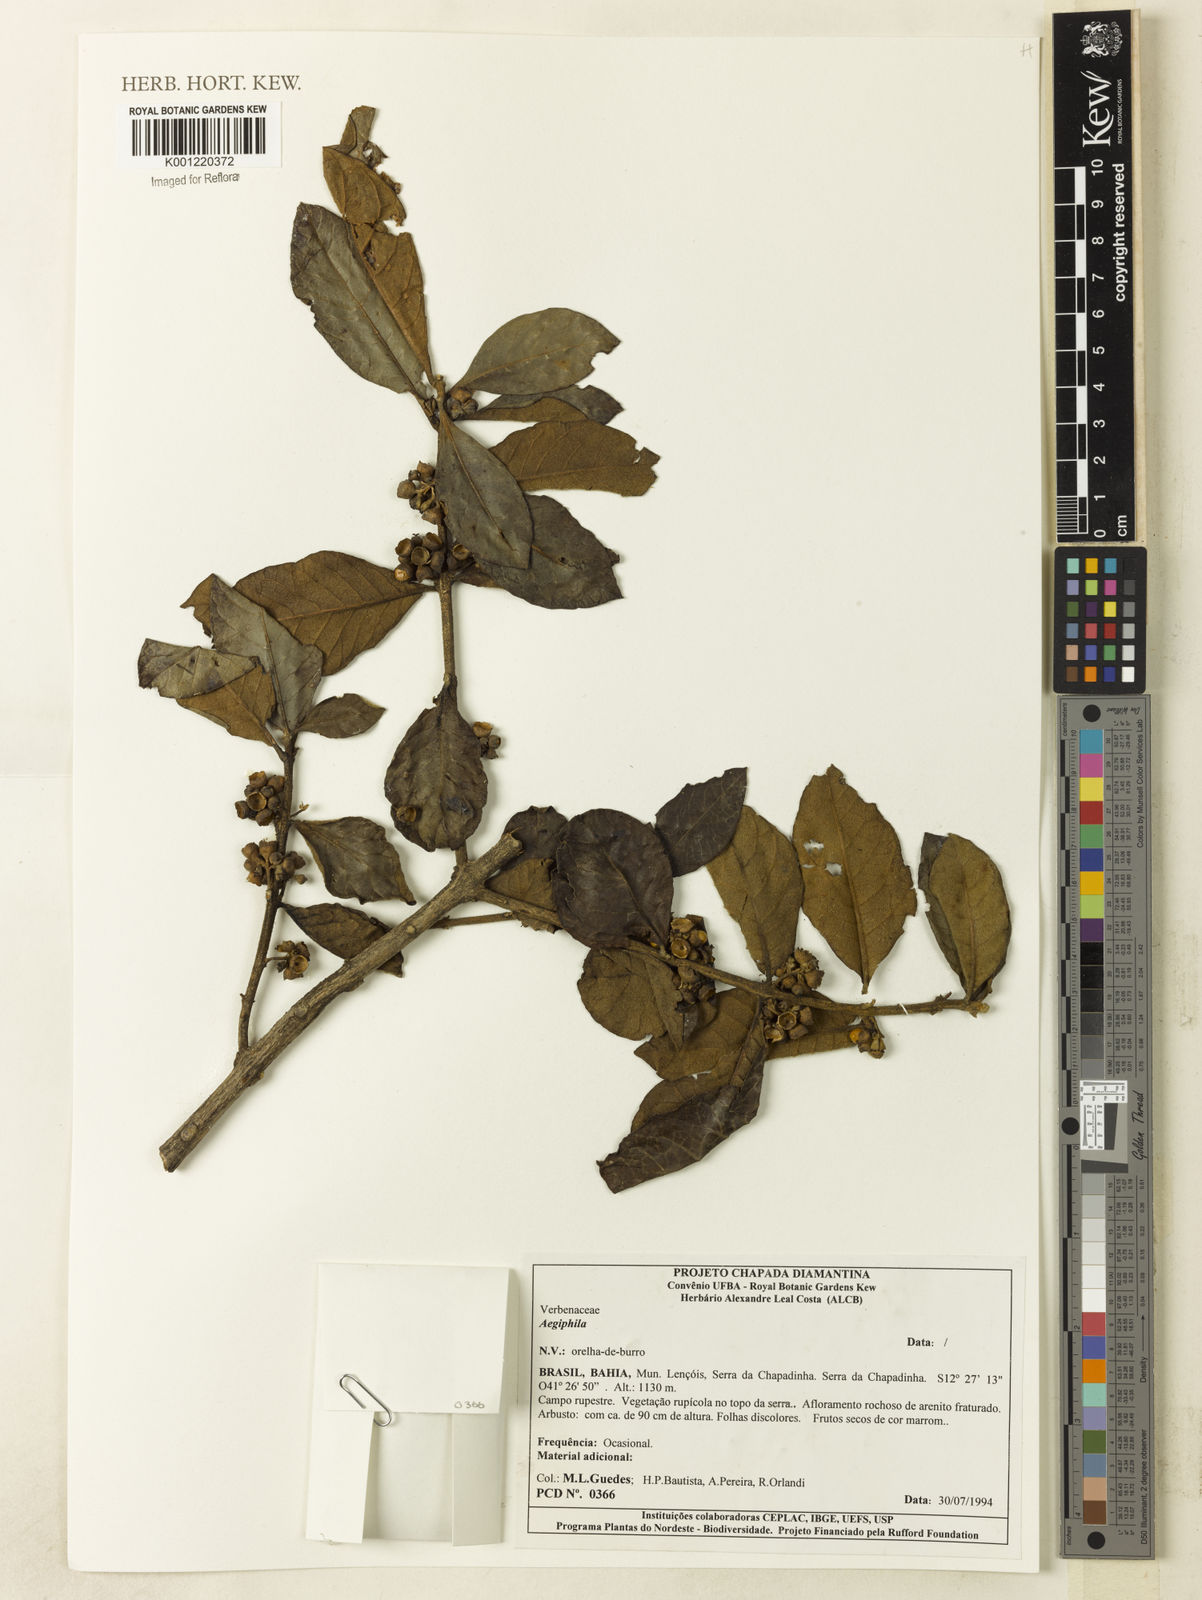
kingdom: Plantae
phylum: Tracheophyta
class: Magnoliopsida
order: Lamiales
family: Lamiaceae
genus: Aegiphila
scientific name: Aegiphila
